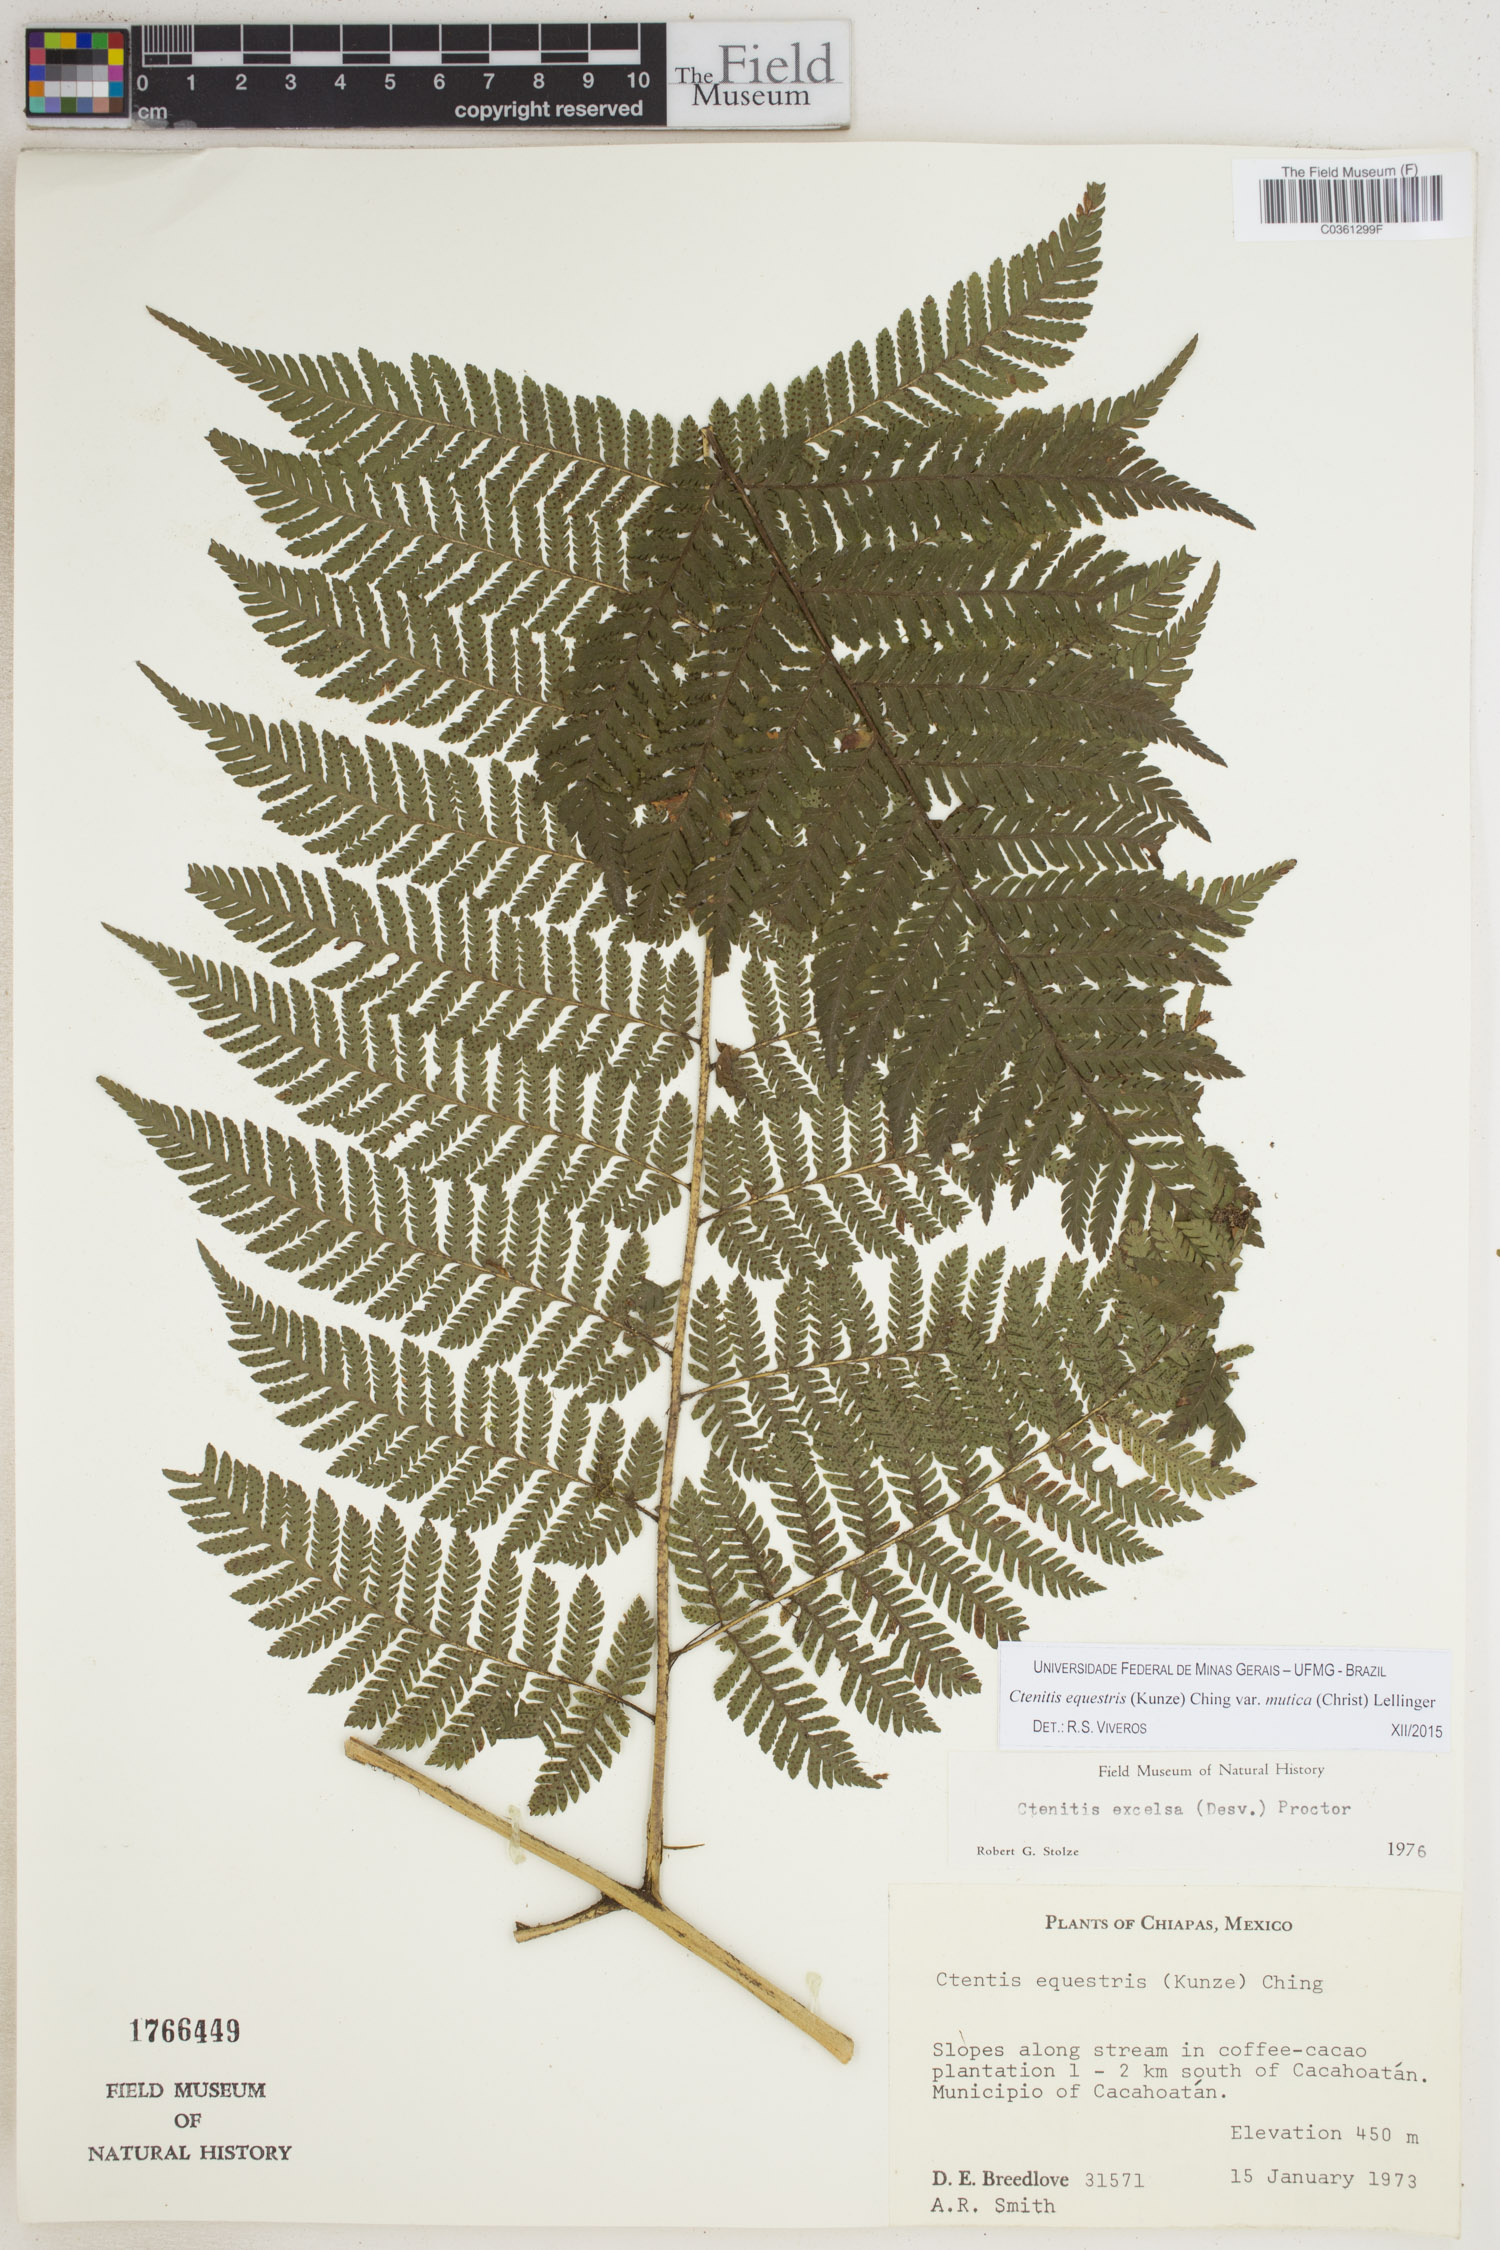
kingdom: Plantae
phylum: Tracheophyta
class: Polypodiopsida
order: Polypodiales
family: Dryopteridaceae
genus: Ctenitis
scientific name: Ctenitis equestris
